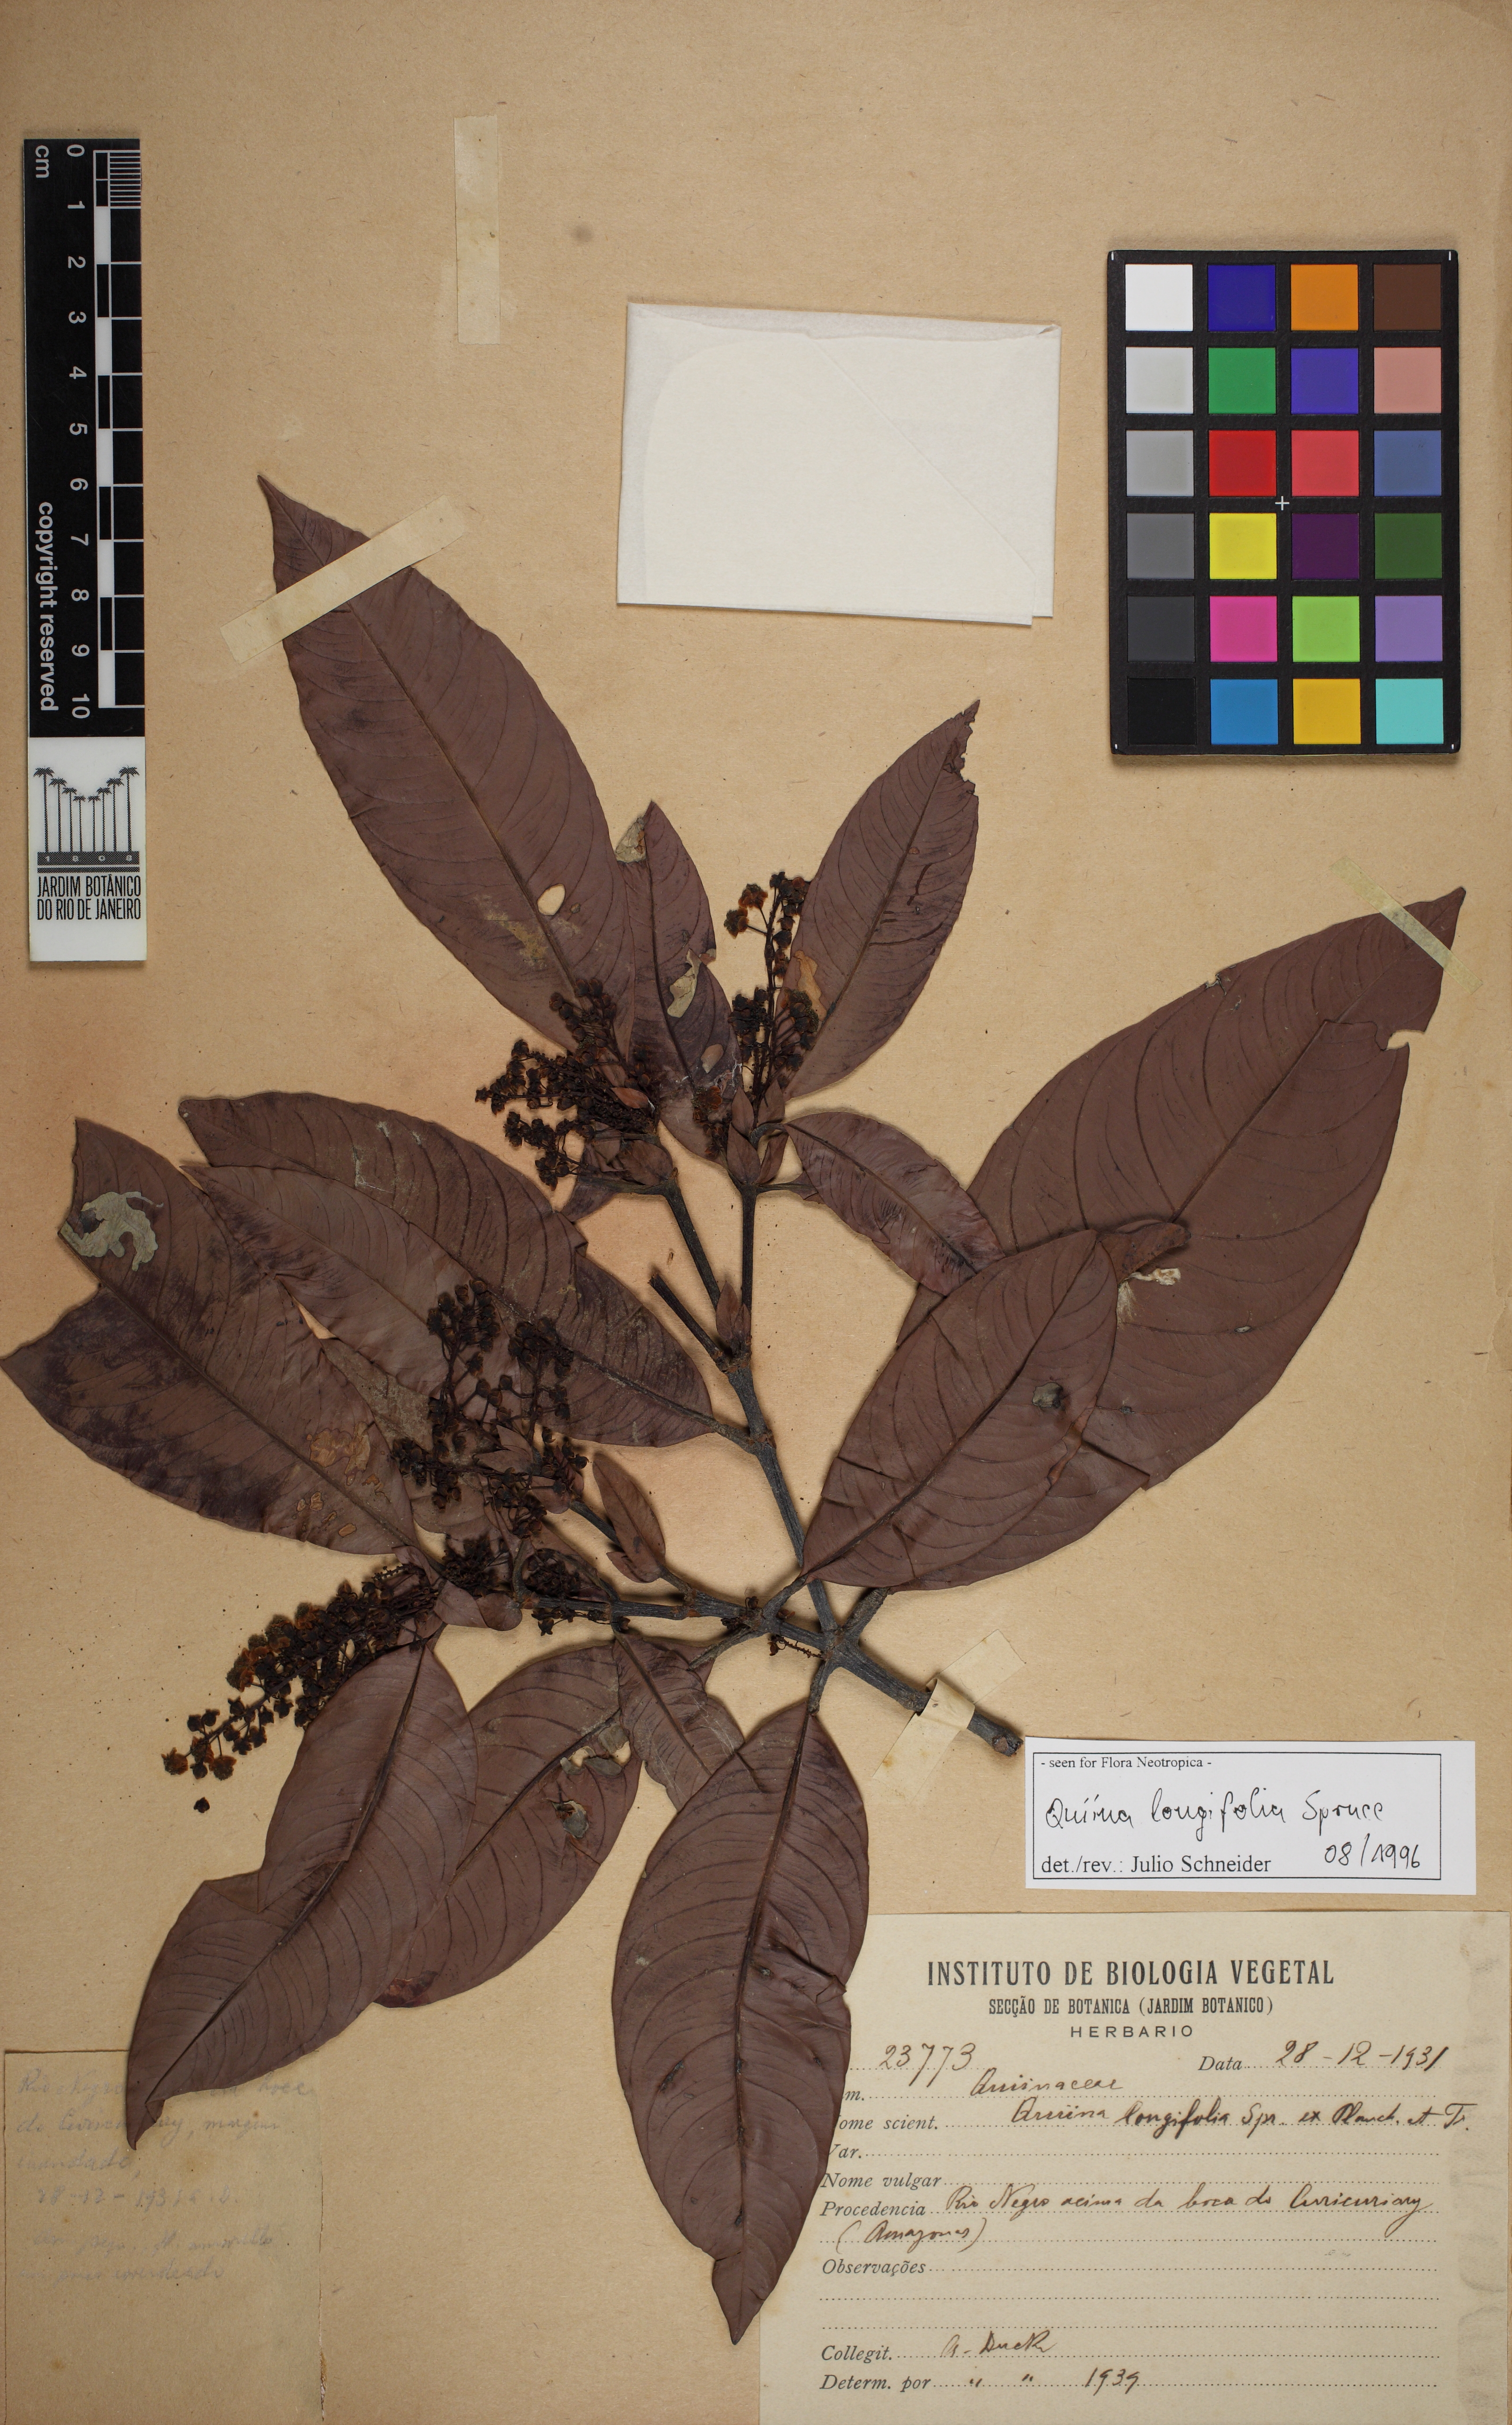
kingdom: Plantae
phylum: Tracheophyta
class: Magnoliopsida
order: Malpighiales
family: Quiinaceae
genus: Quiina
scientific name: Quiina longifolia
